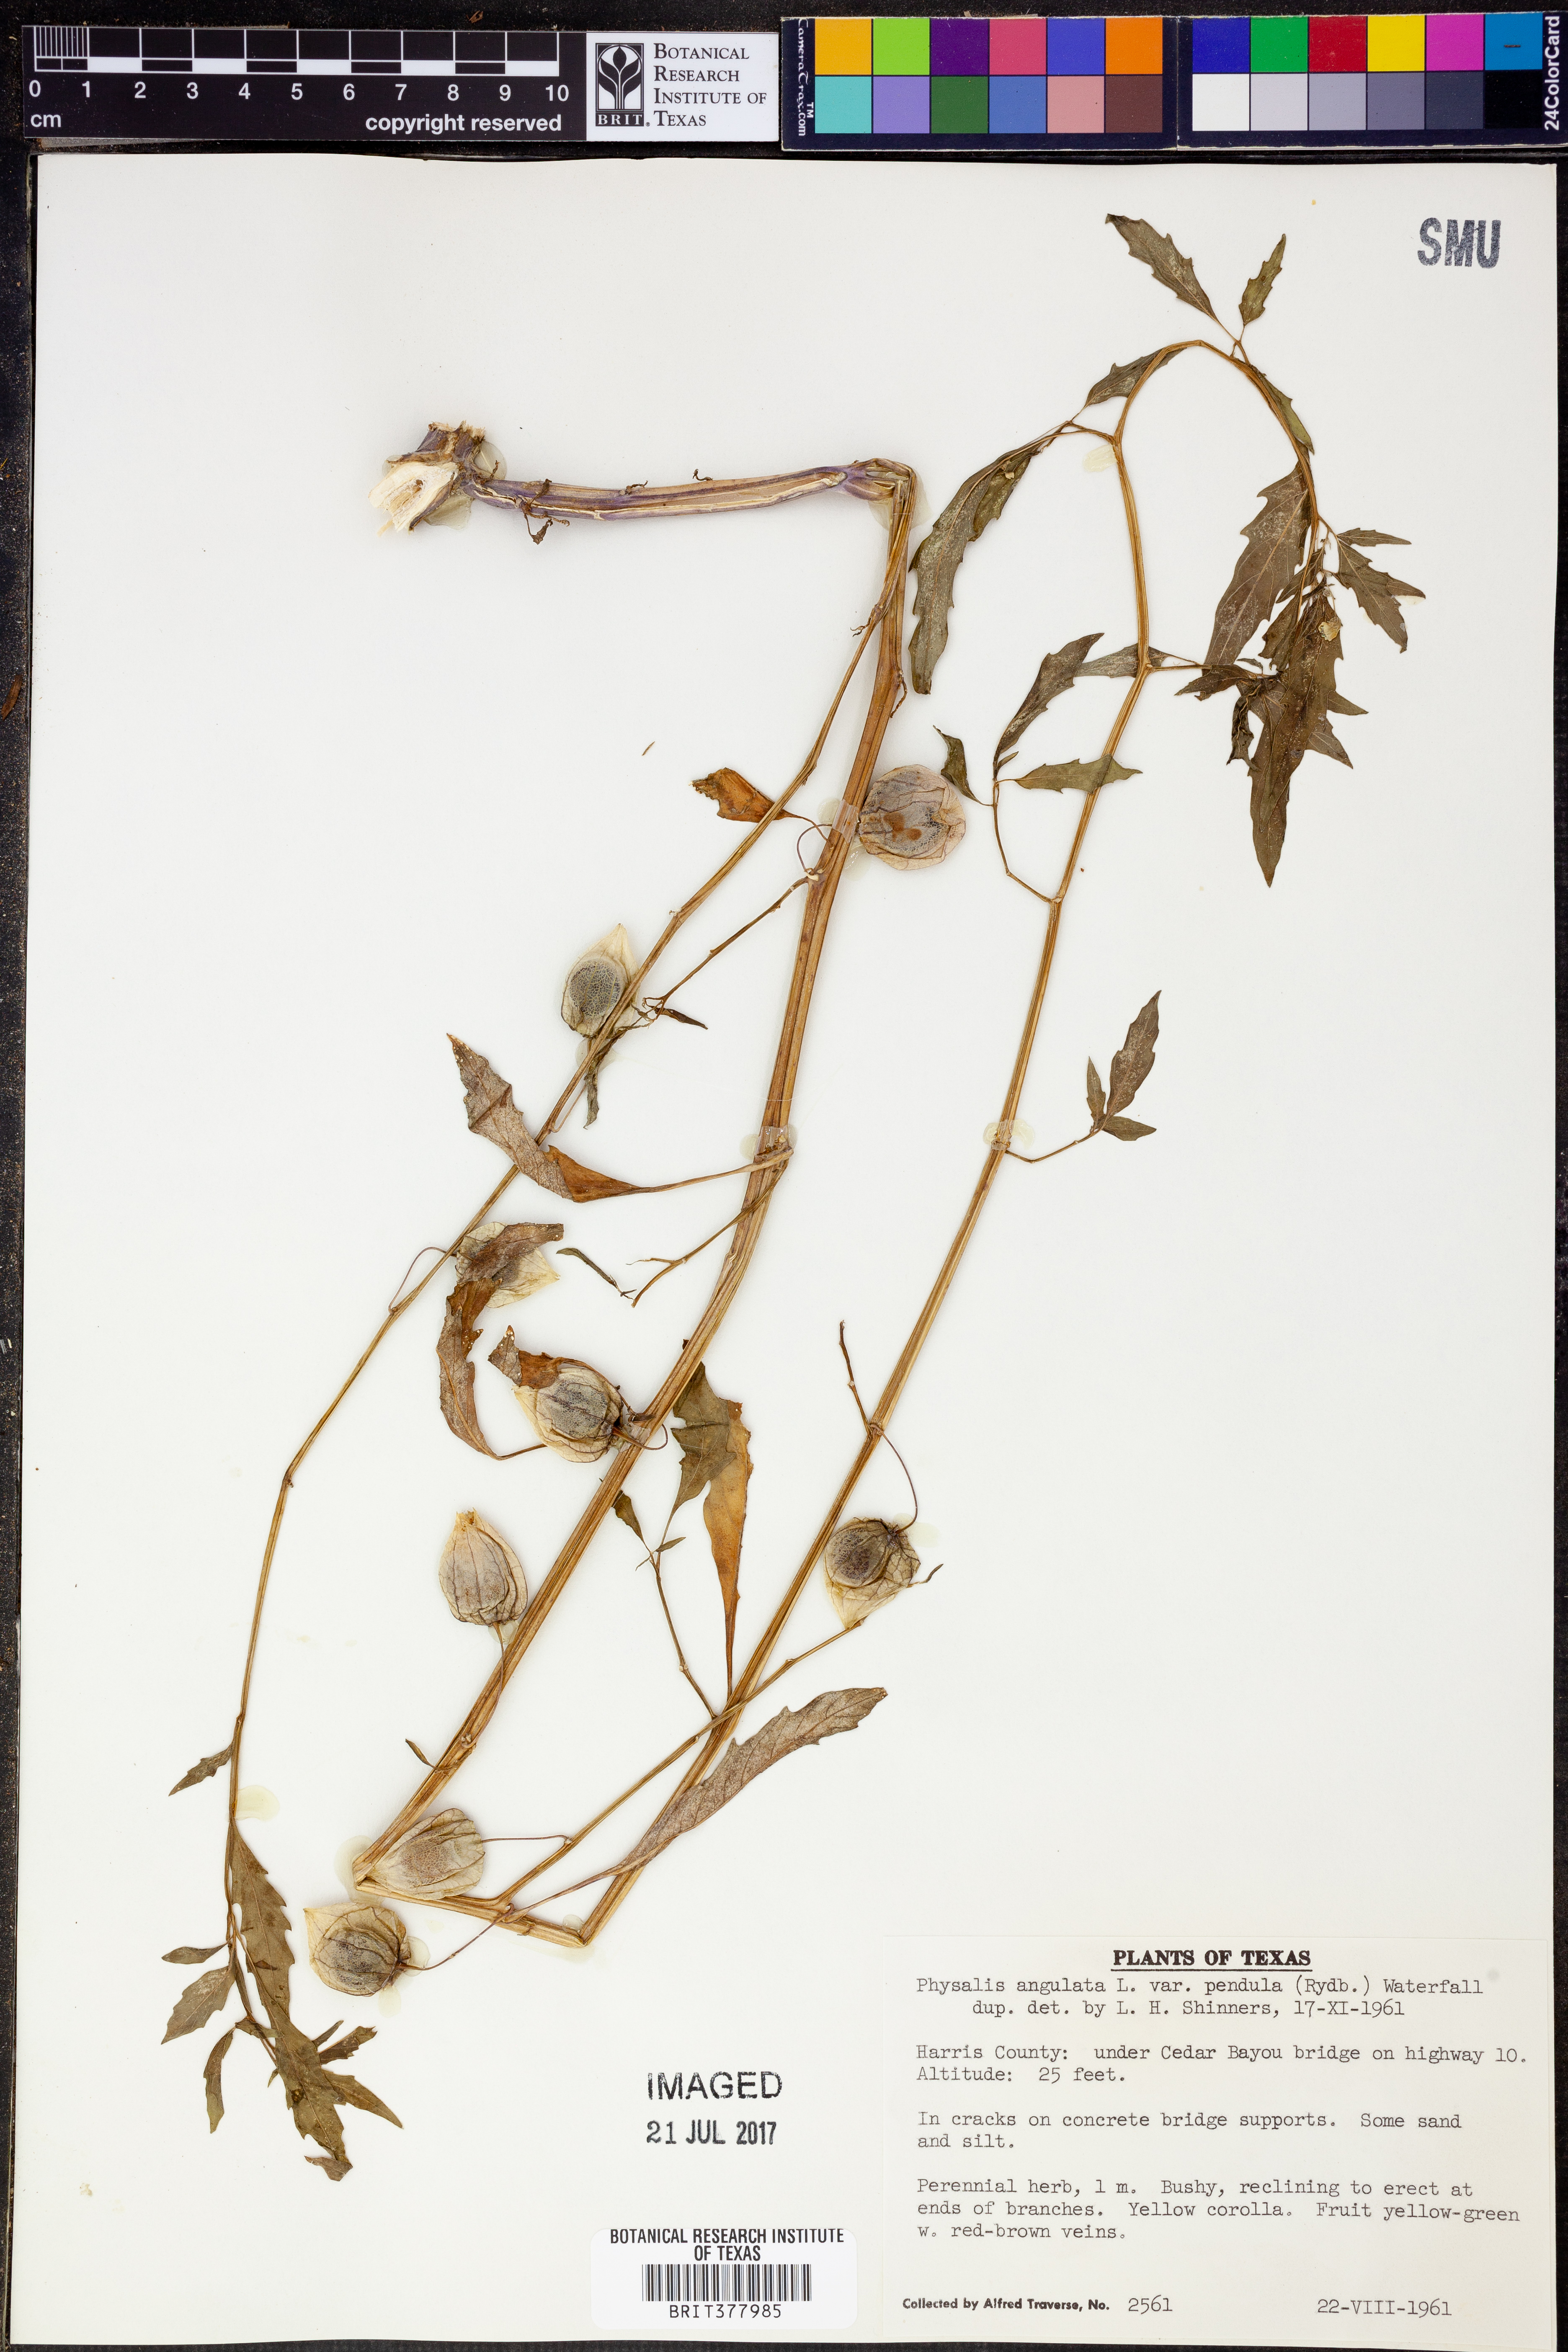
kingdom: Plantae
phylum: Tracheophyta
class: Magnoliopsida
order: Solanales
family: Solanaceae
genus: Physalis
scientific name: Physalis angulata
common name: Angular winter-cherry
